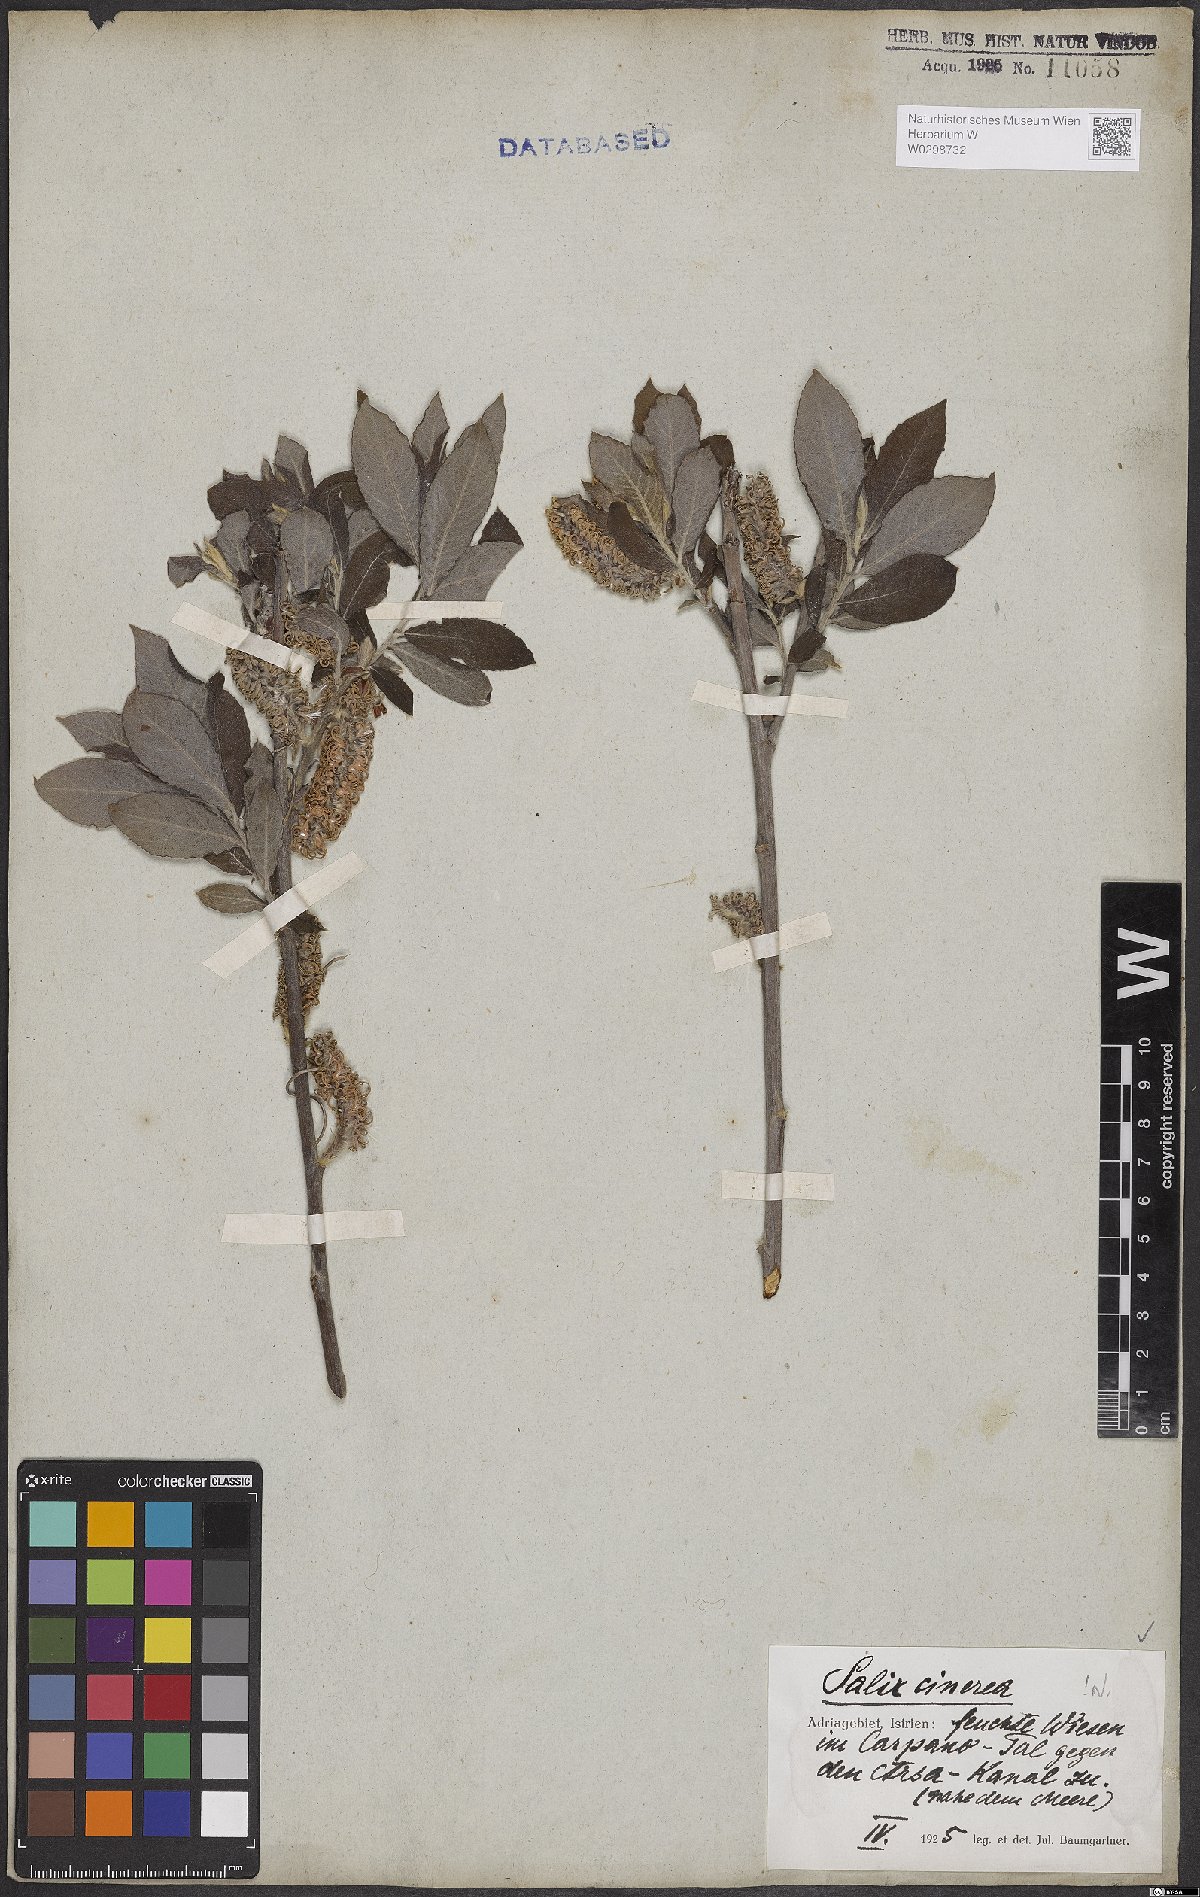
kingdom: Plantae
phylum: Tracheophyta
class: Magnoliopsida
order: Malpighiales
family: Salicaceae
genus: Salix
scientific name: Salix cinerea
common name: Common sallow
